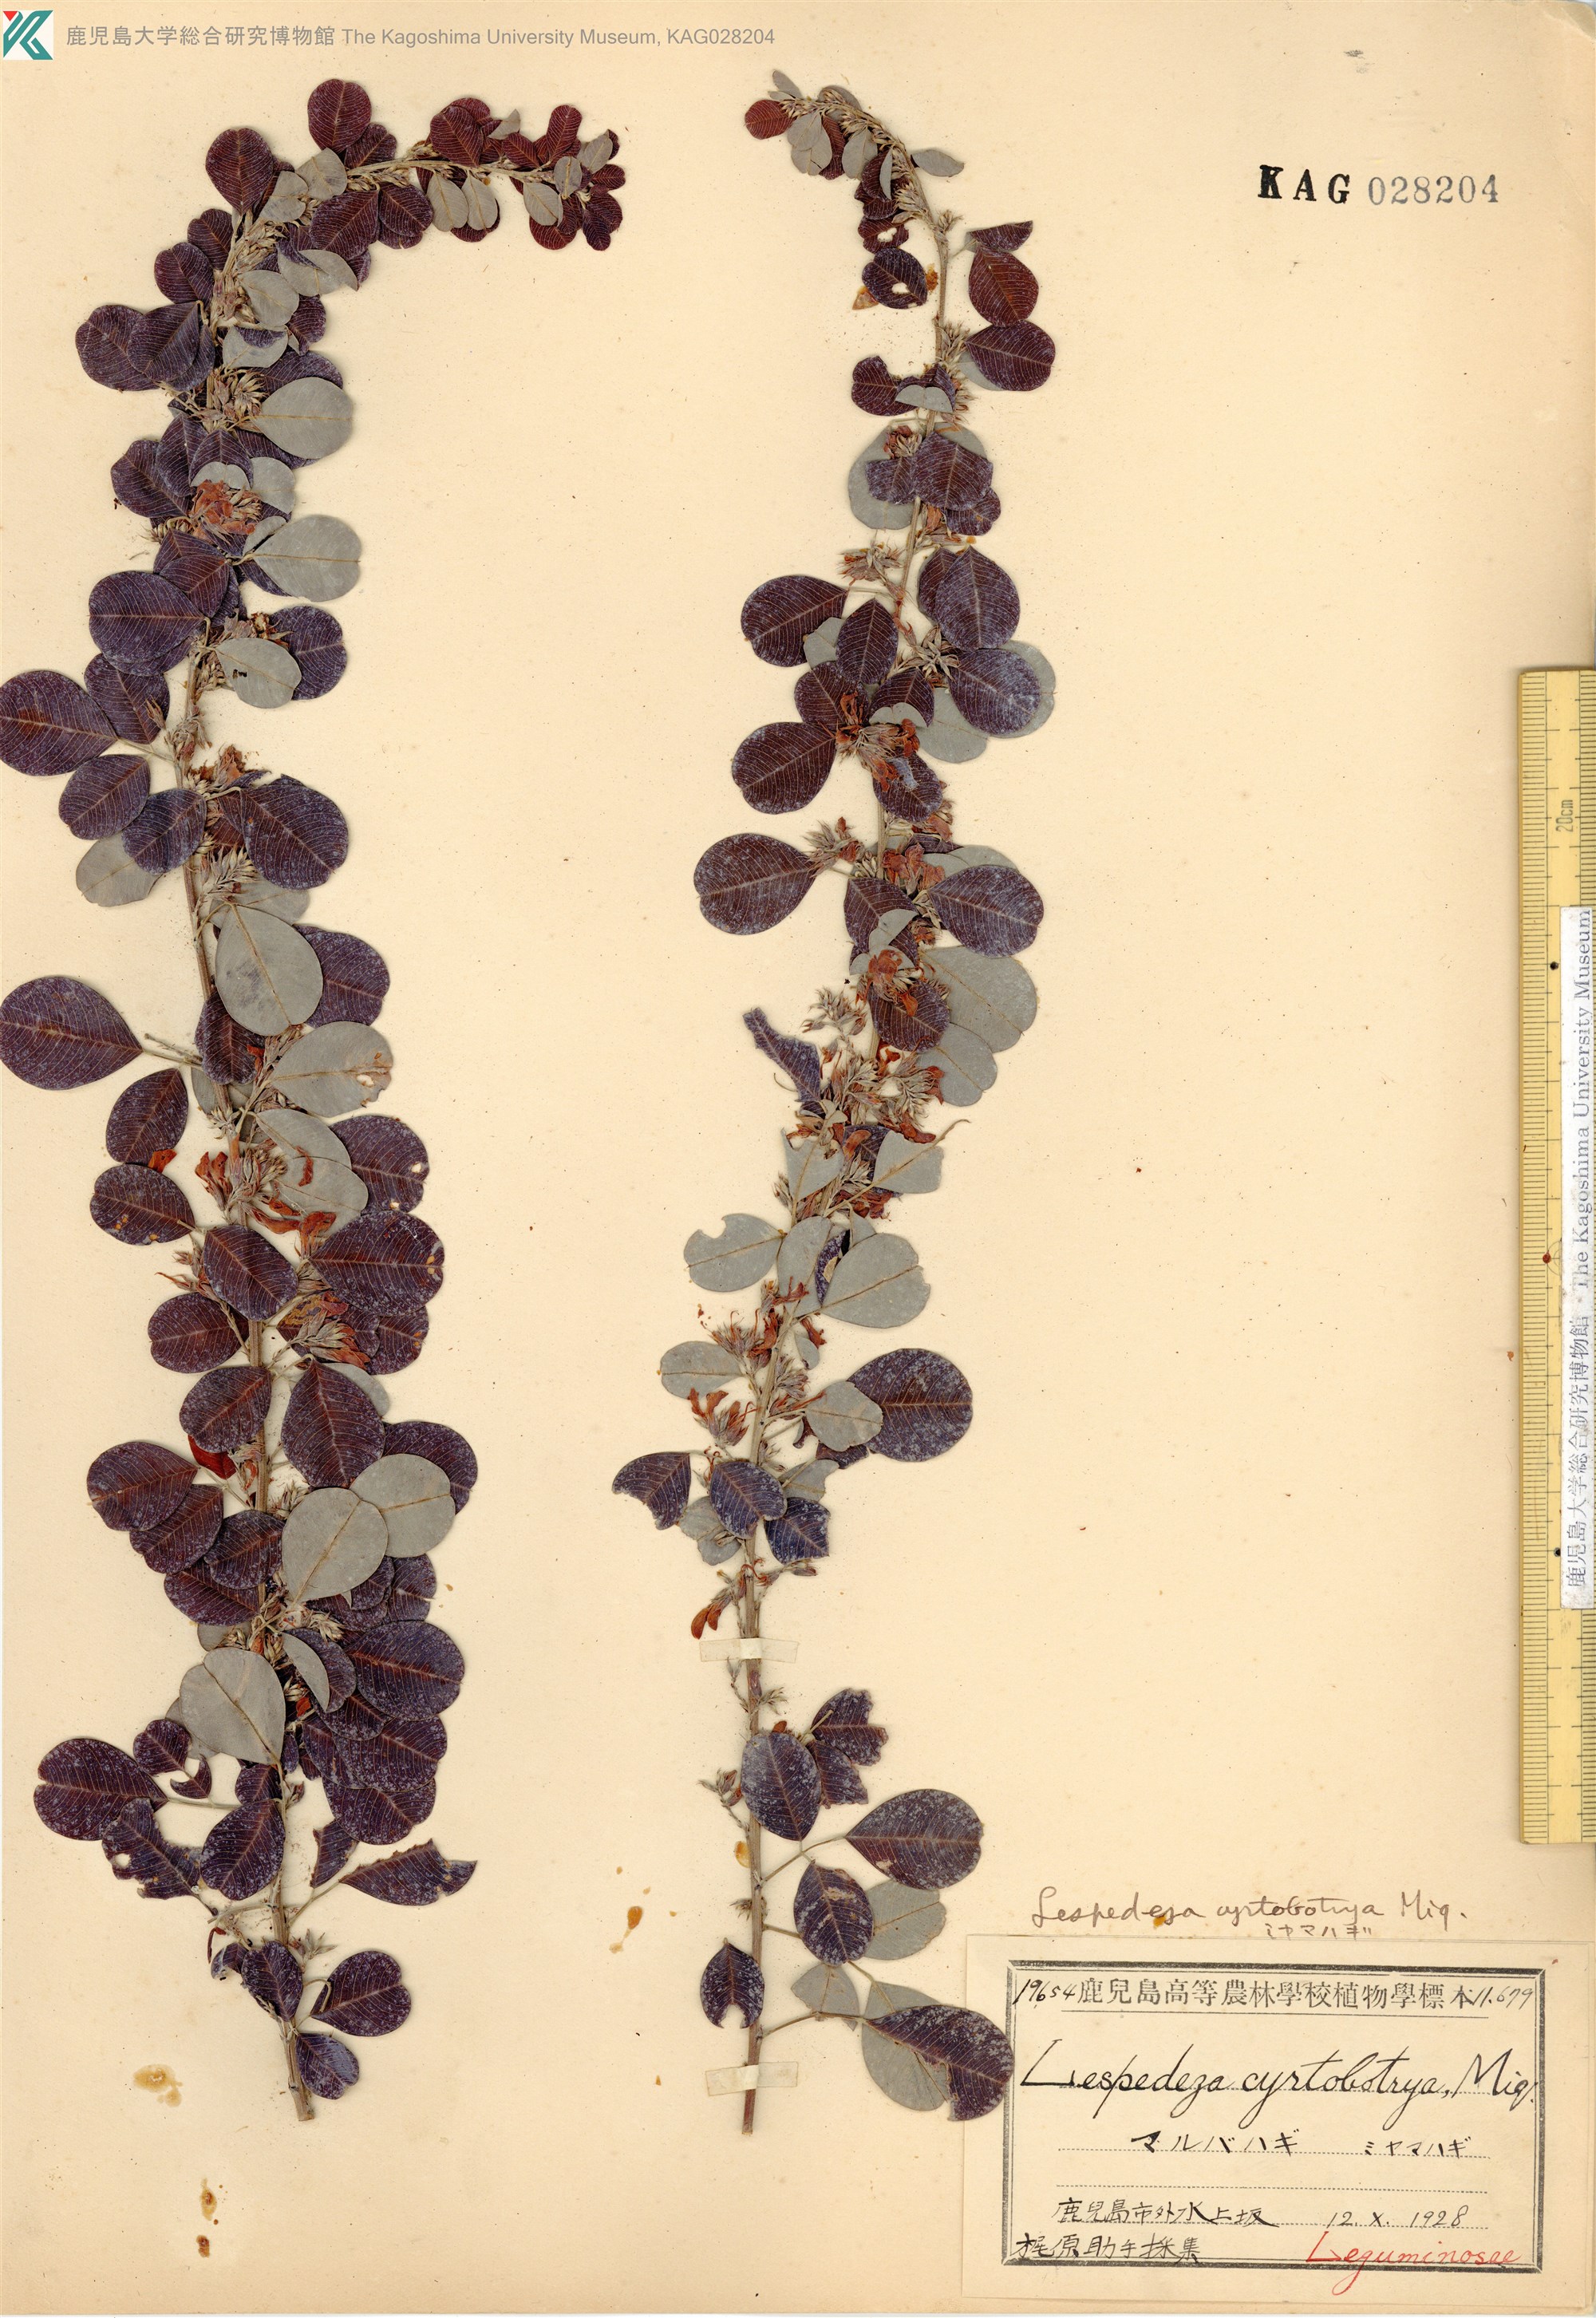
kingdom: Plantae
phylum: Tracheophyta
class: Magnoliopsida
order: Fabales
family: Fabaceae
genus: Lespedeza
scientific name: Lespedeza cyrtobotrya
